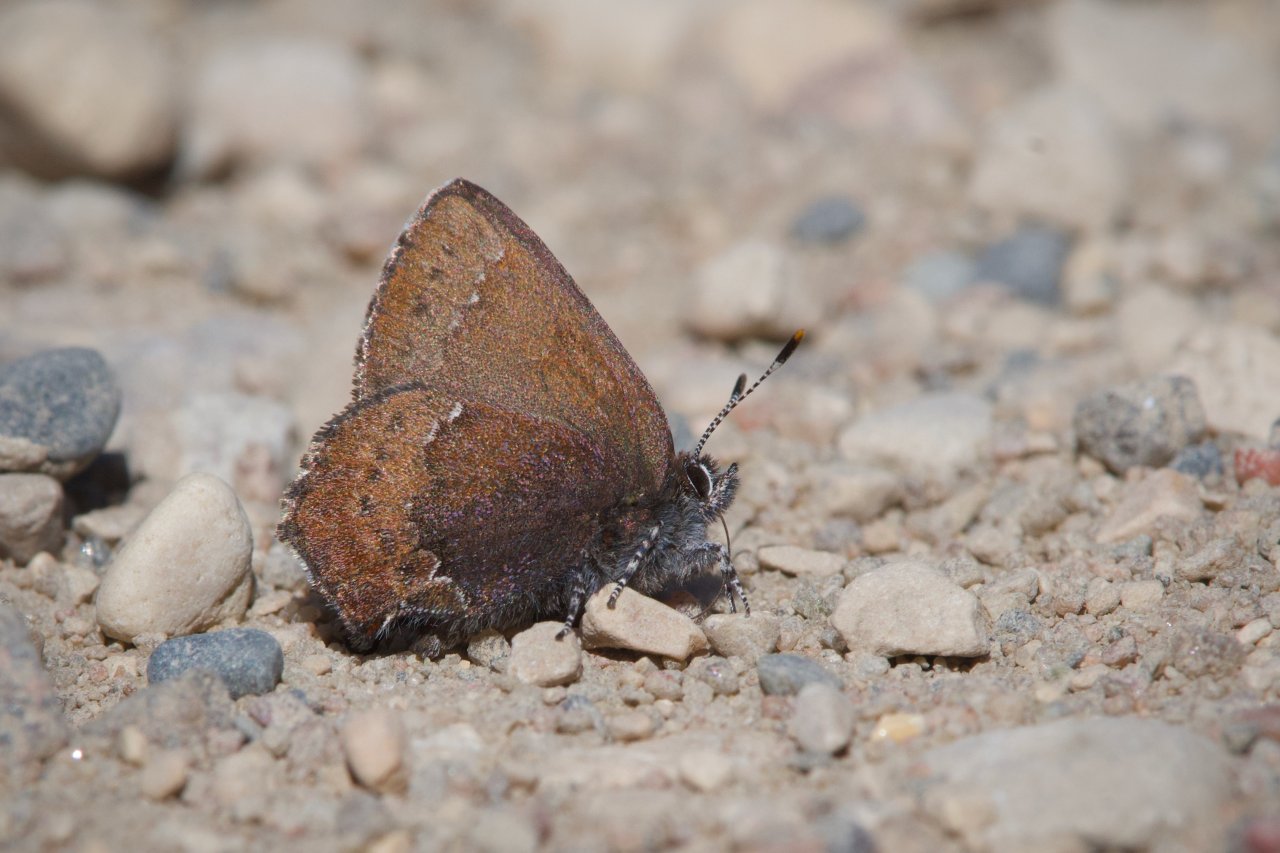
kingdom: Animalia
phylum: Arthropoda
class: Insecta
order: Lepidoptera
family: Lycaenidae
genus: Incisalia
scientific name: Incisalia irioides
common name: Brown Elfin
